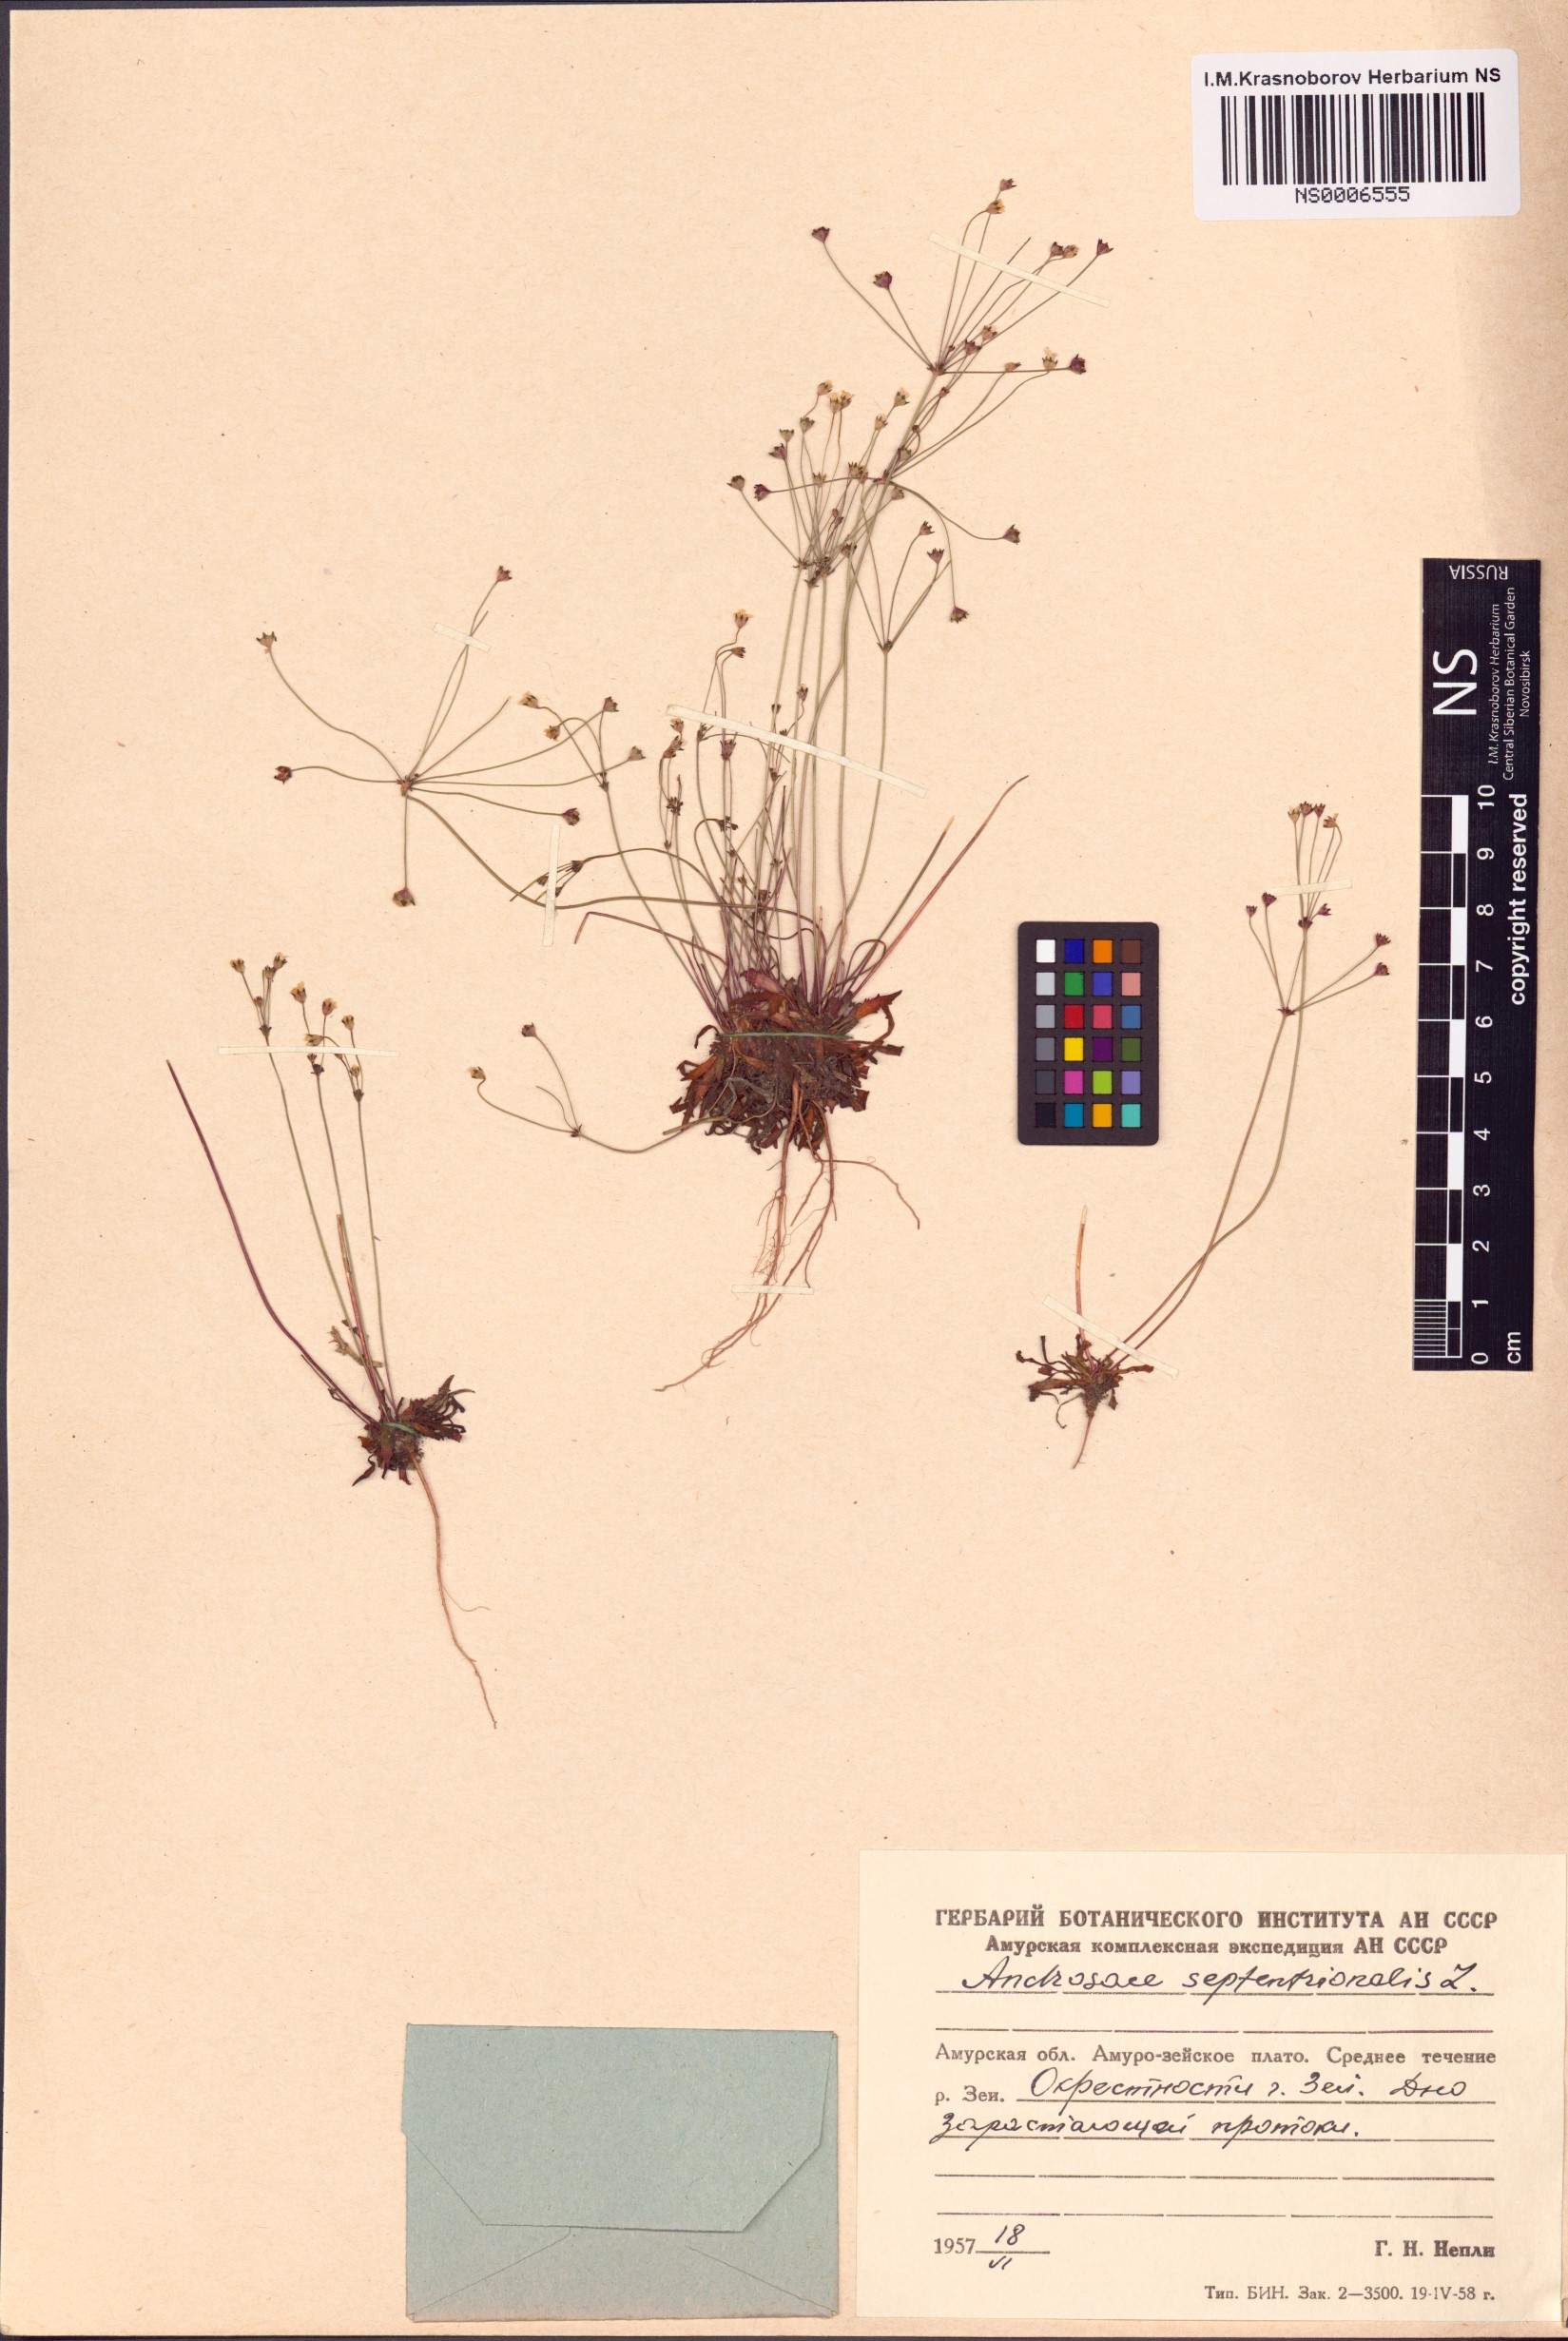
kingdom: Plantae
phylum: Tracheophyta
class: Magnoliopsida
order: Ericales
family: Primulaceae
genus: Androsace
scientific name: Androsace septentrionalis
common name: Hairy northern fairy-candelabra
